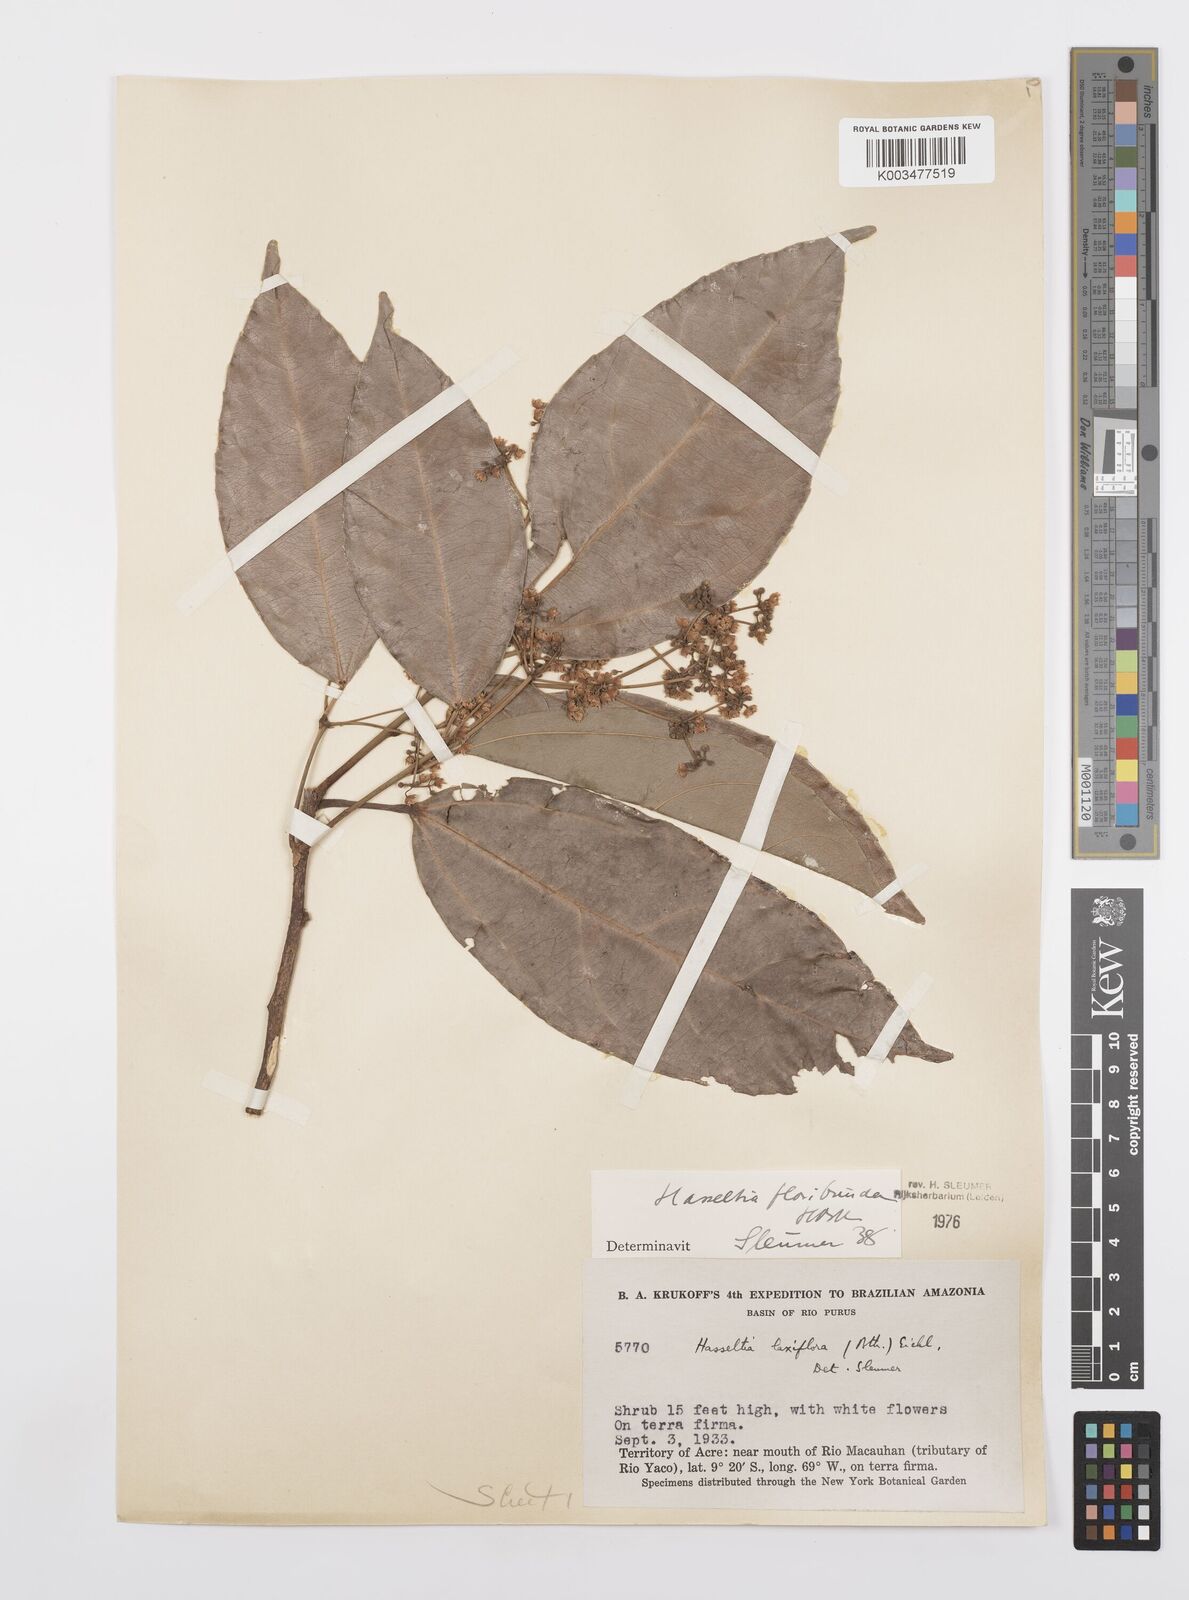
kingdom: Plantae
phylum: Tracheophyta
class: Magnoliopsida
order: Malpighiales
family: Salicaceae
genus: Hasseltia
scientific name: Hasseltia floribunda
